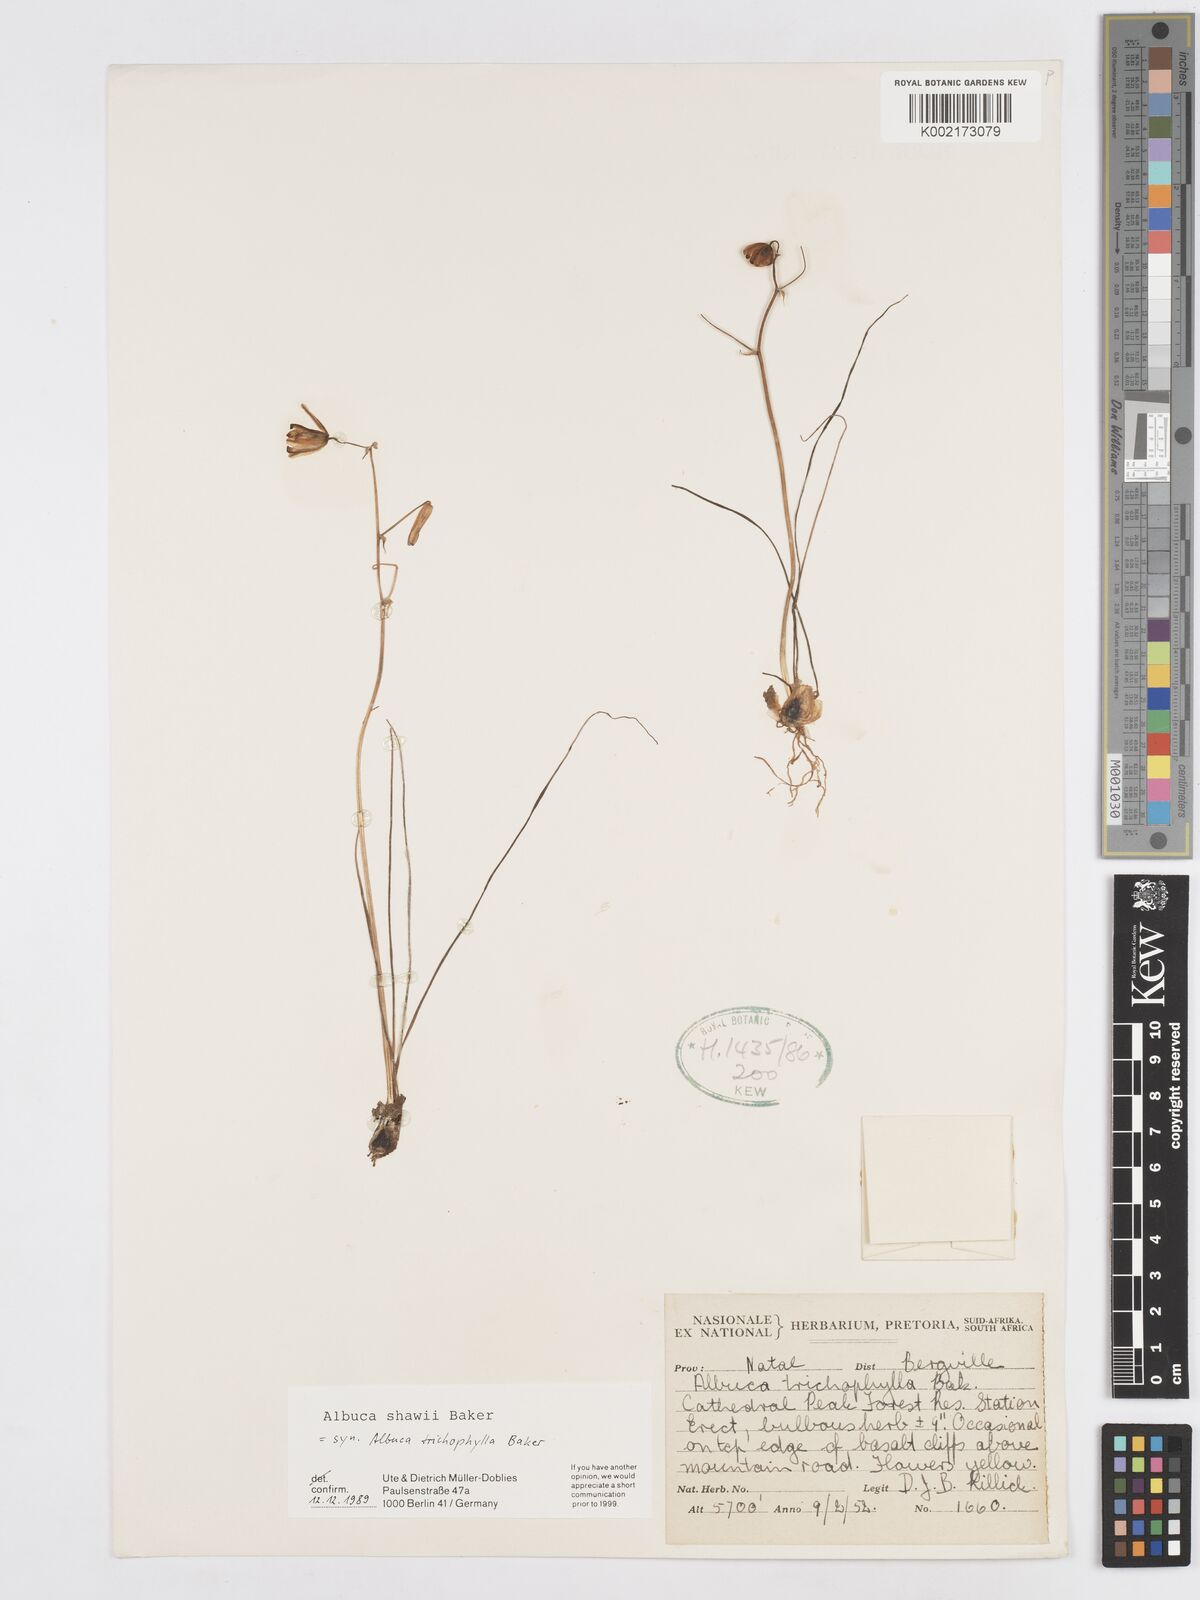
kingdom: Plantae
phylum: Tracheophyta
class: Liliopsida
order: Asparagales
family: Asparagaceae
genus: Albuca
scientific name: Albuca shawii
